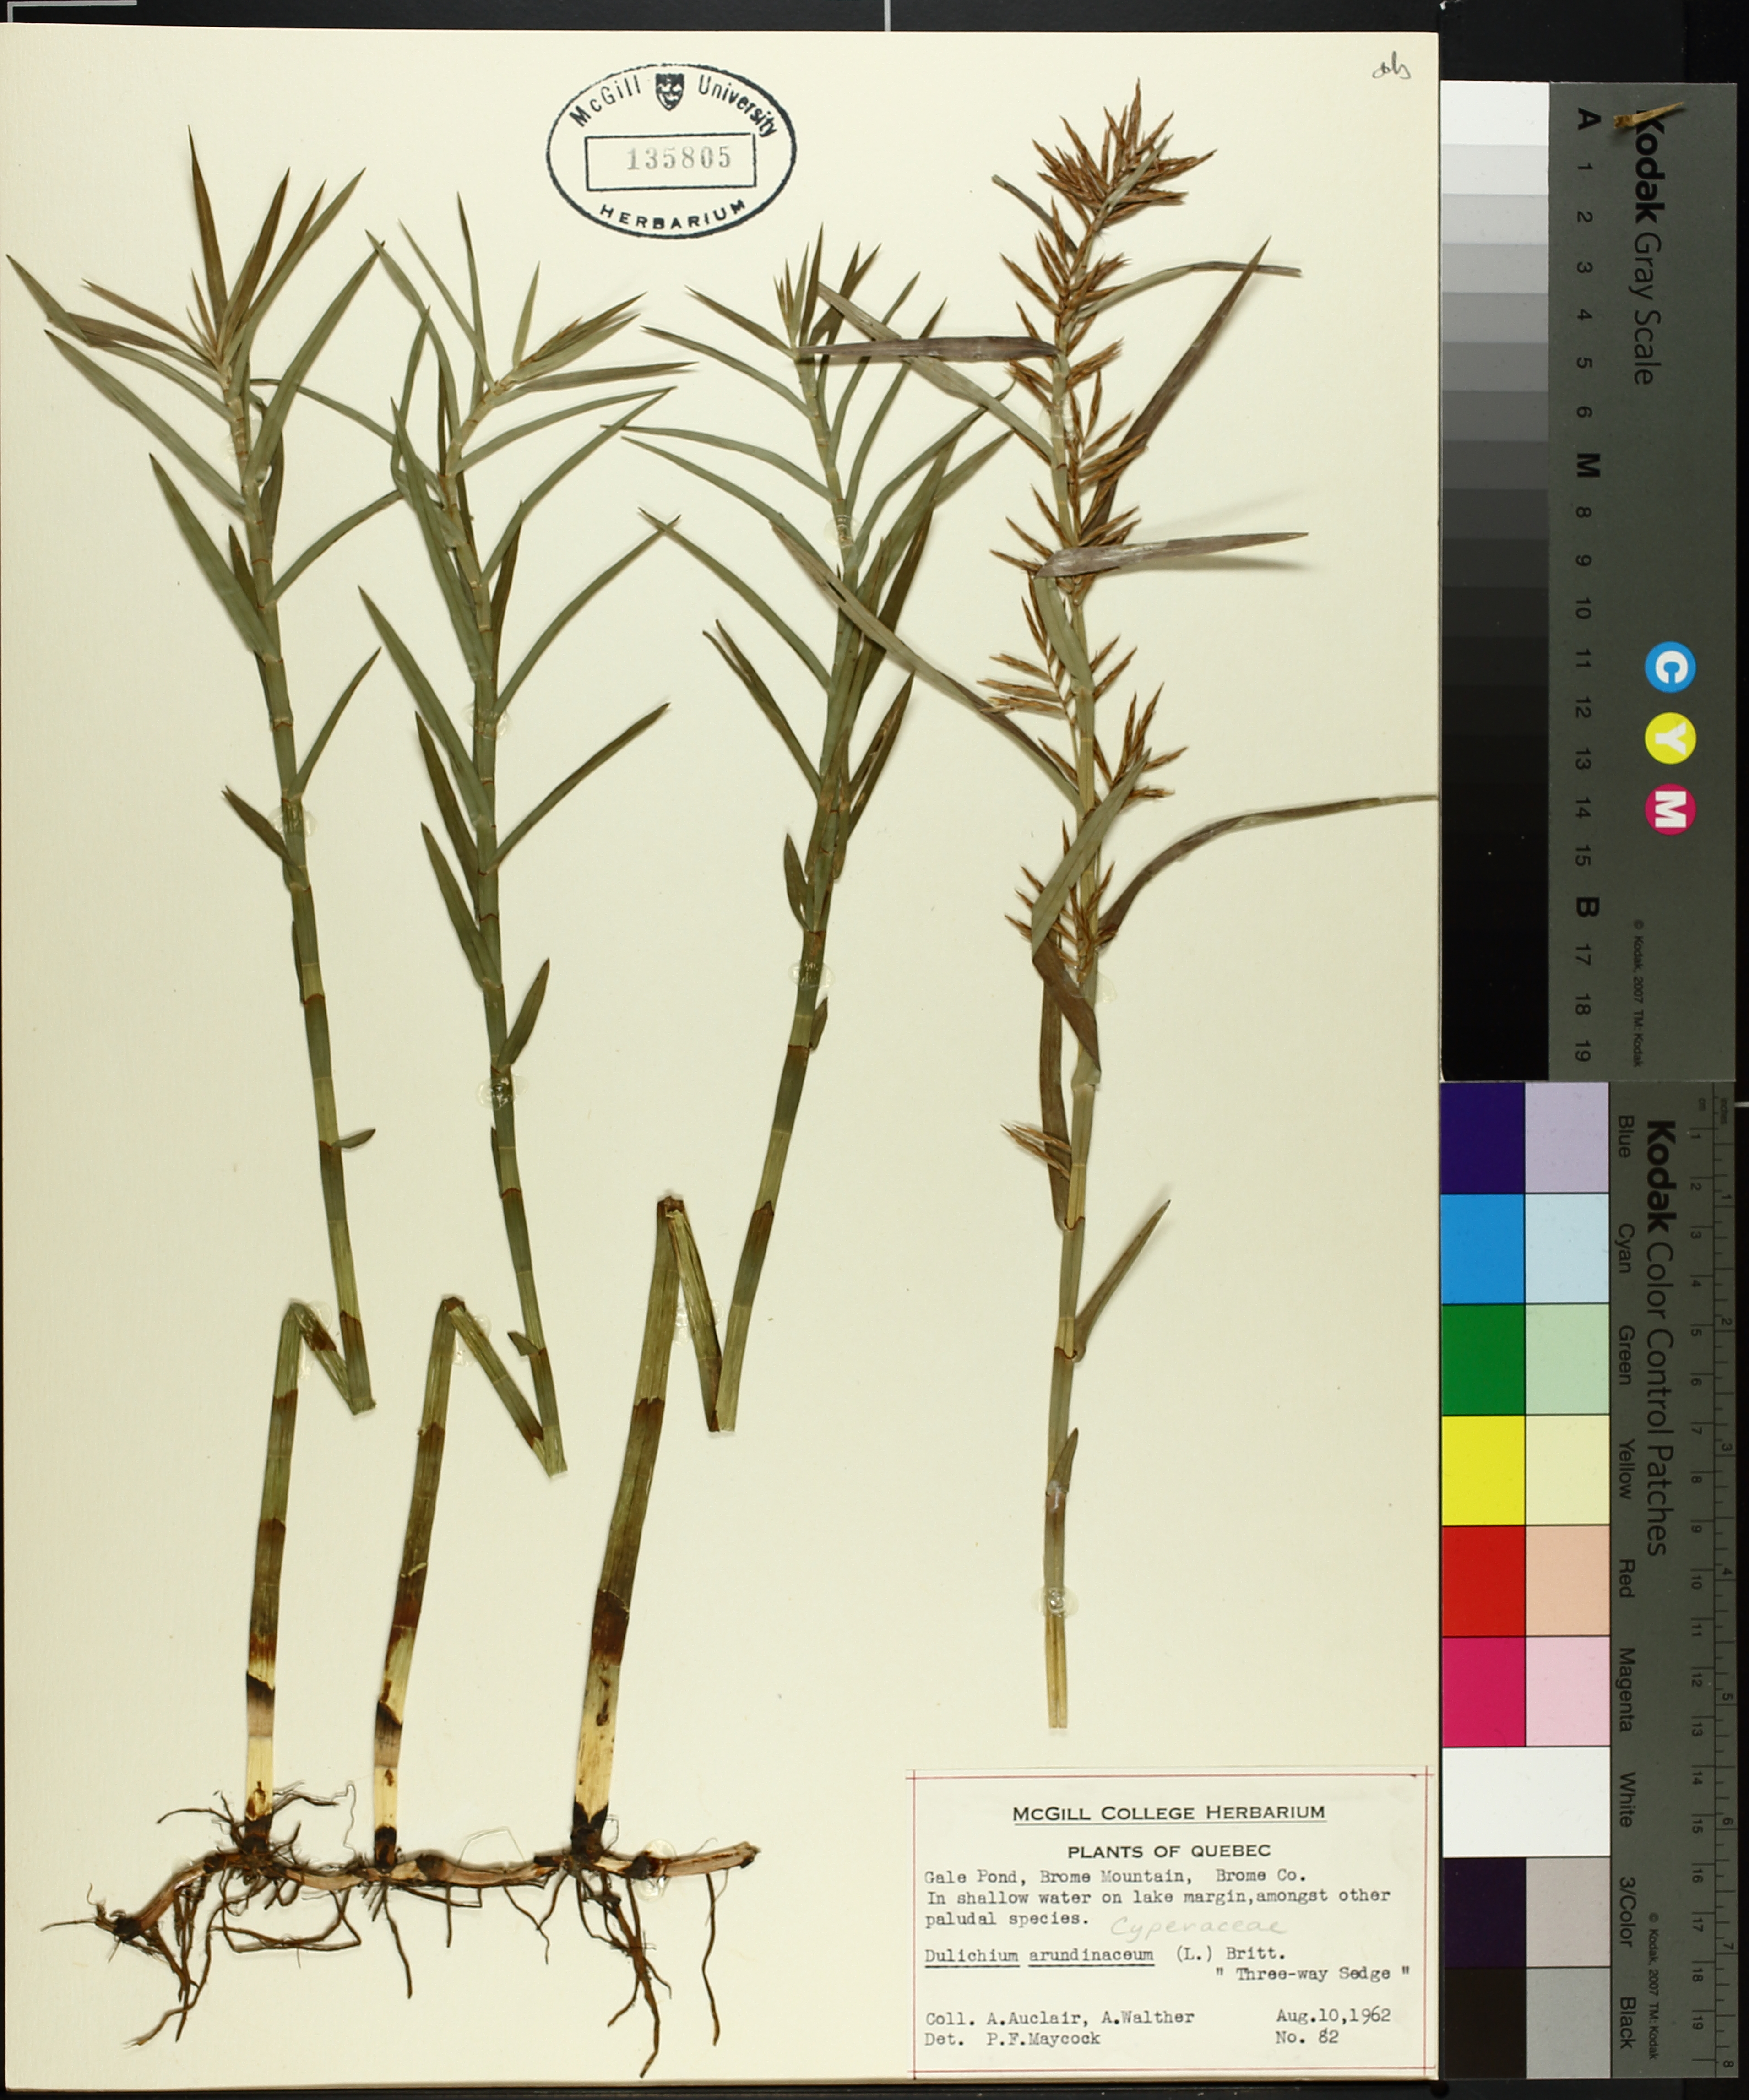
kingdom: Plantae
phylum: Tracheophyta
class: Liliopsida
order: Poales
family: Cyperaceae
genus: Dulichium
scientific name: Dulichium arundinaceum
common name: Three-way sedge
